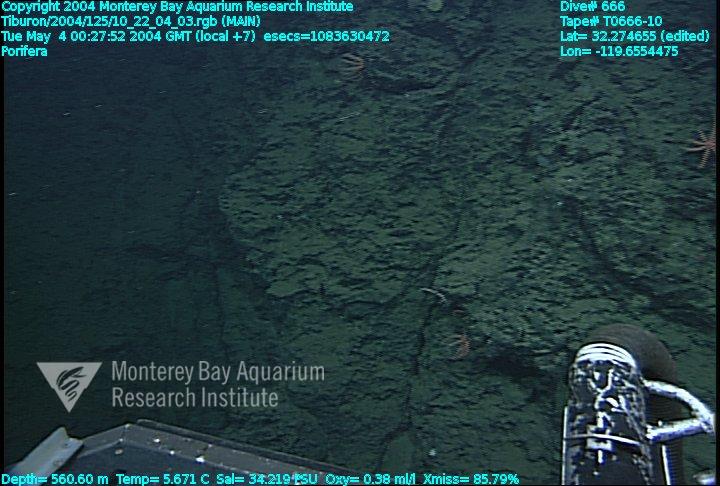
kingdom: Animalia
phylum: Porifera
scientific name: Porifera
